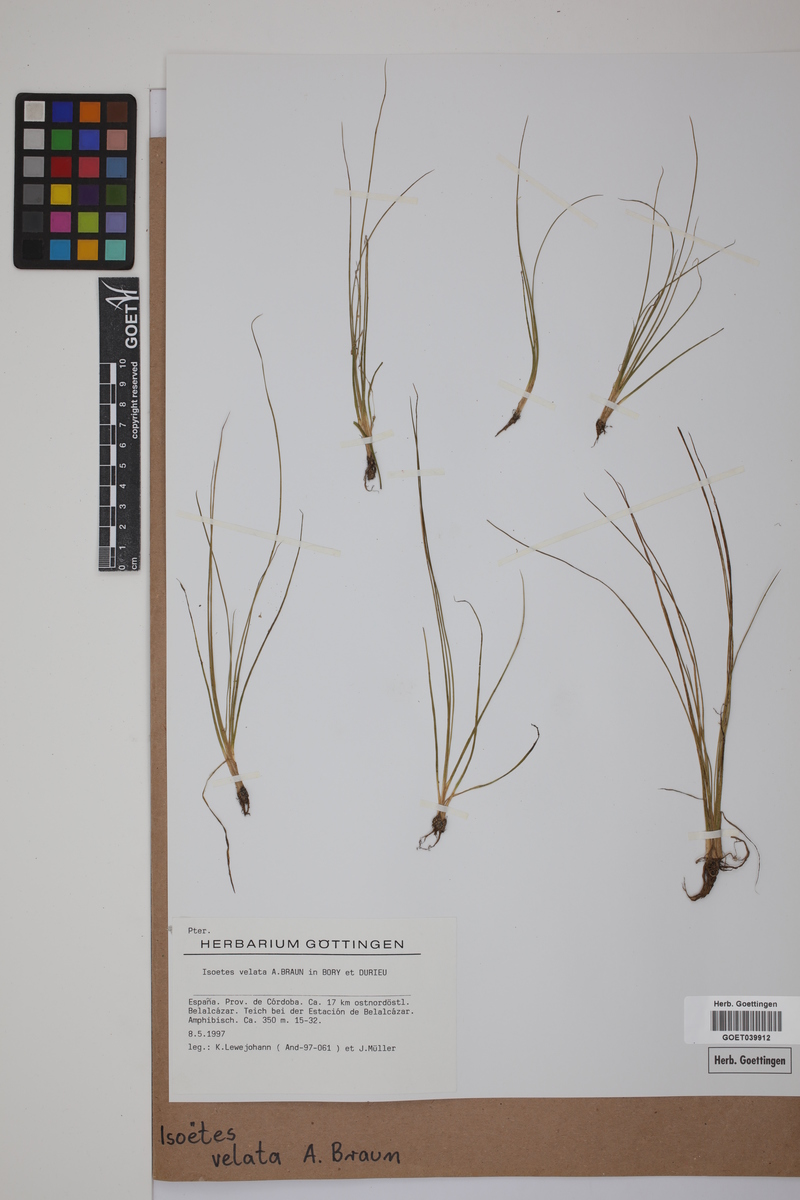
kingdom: Plantae
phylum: Tracheophyta
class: Lycopodiopsida
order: Isoetales
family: Isoetaceae
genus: Isoetes
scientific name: Isoetes longissima
